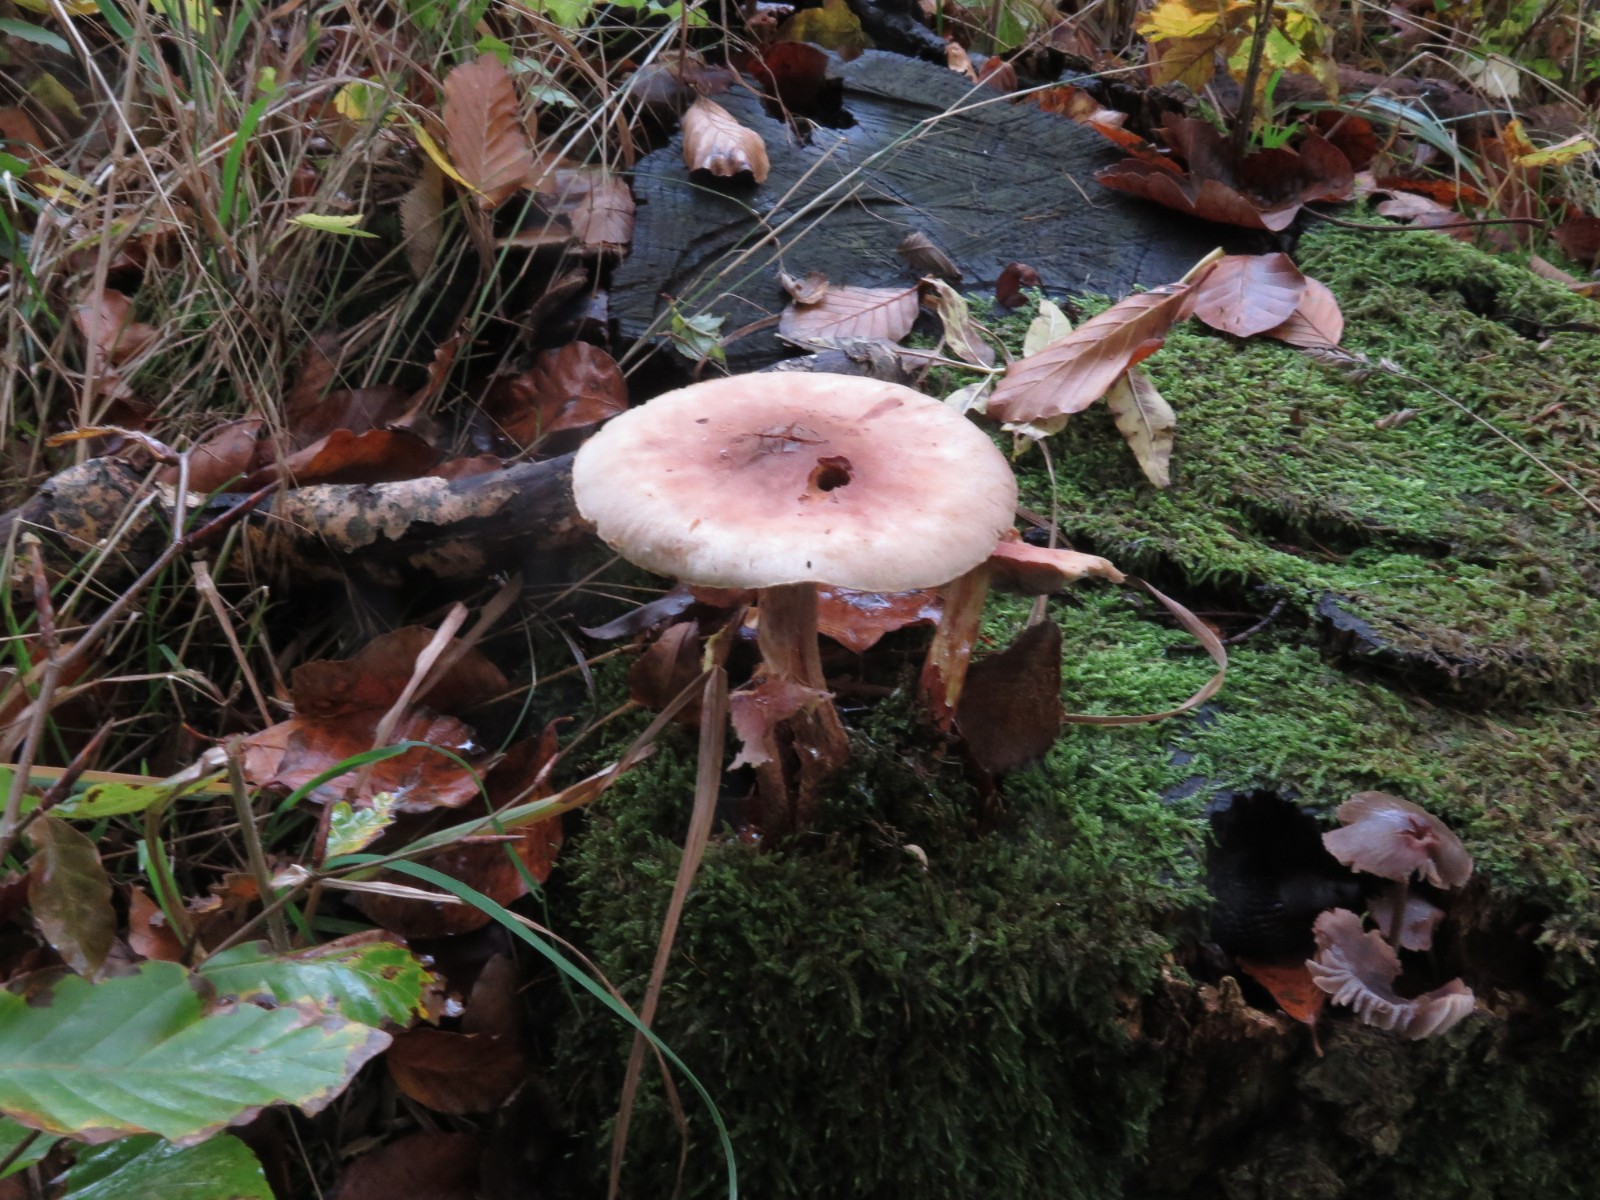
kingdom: Fungi
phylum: Basidiomycota
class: Agaricomycetes
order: Agaricales
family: Physalacriaceae
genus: Armillaria
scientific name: Armillaria lutea
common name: køllestokket honningsvamp
